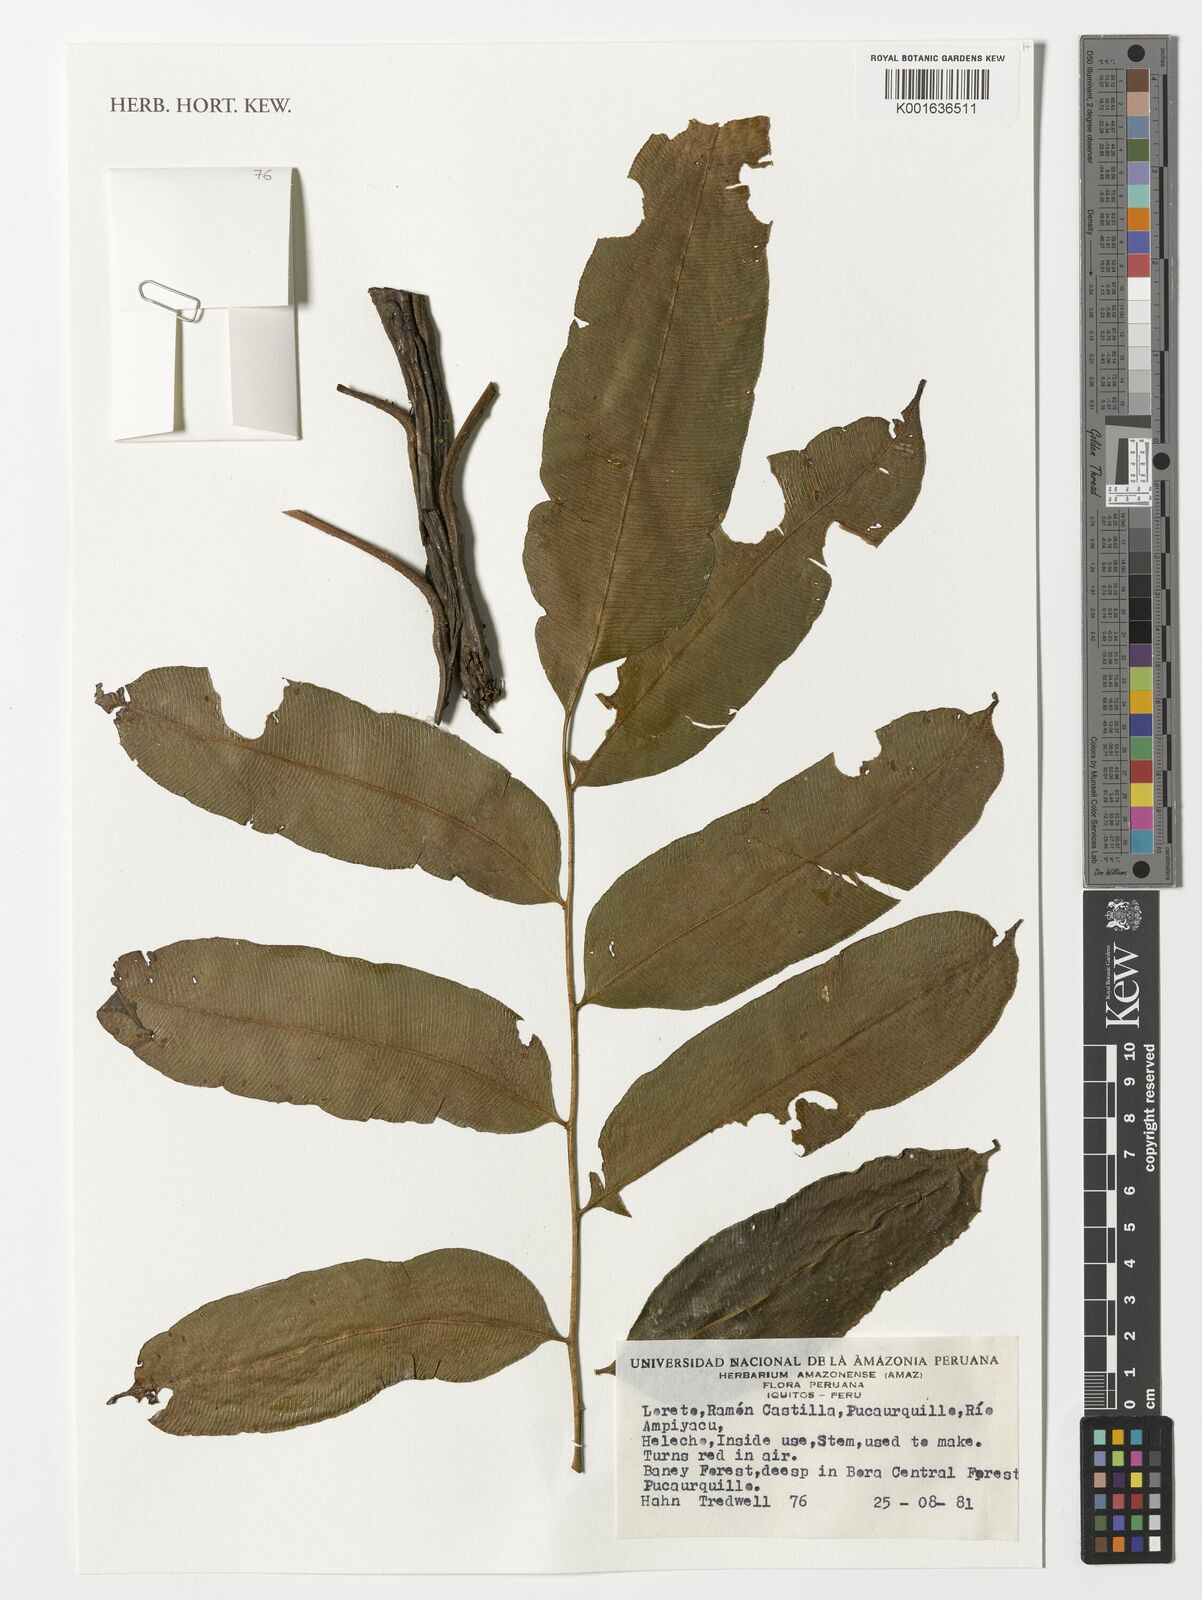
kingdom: Plantae
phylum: Tracheophyta
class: Polypodiopsida
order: Polypodiales
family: Pteridaceae
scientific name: Pteridaceae
